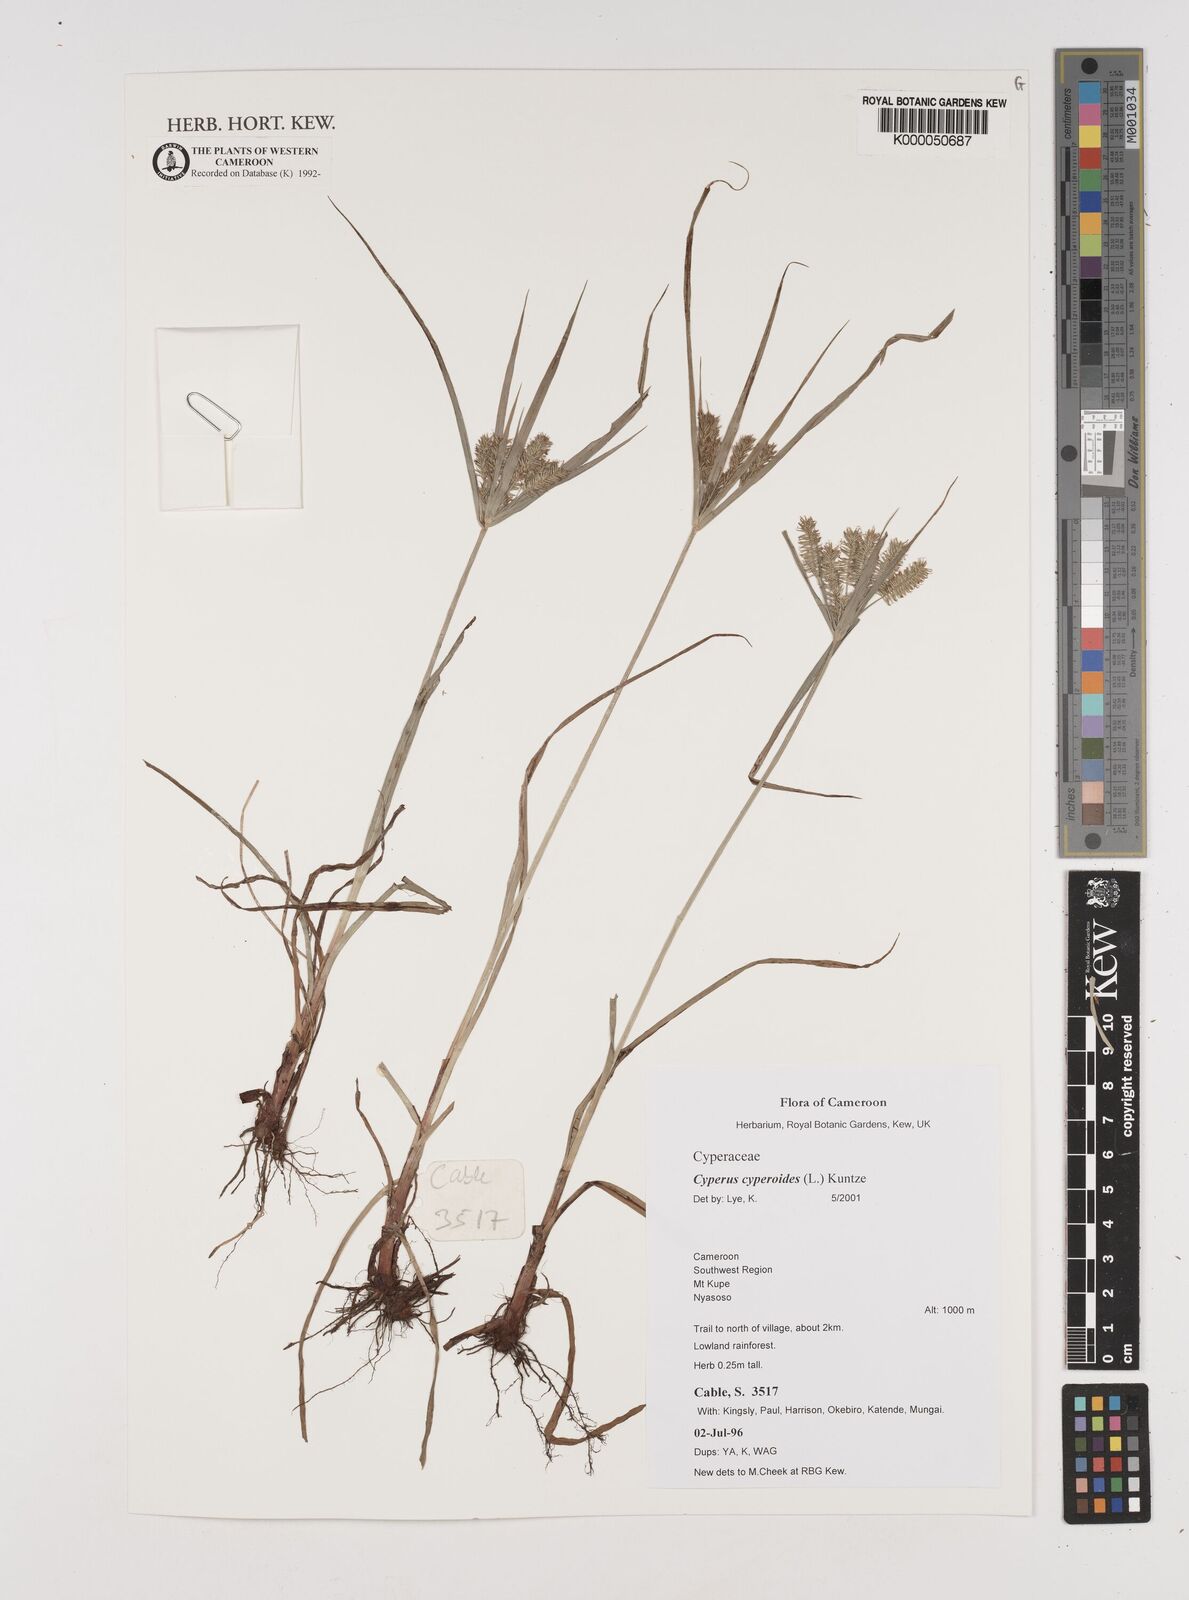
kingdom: Plantae
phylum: Tracheophyta
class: Liliopsida
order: Poales
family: Cyperaceae
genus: Cyperus
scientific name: Cyperus cyperoides
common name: Pacific island flat sedge
